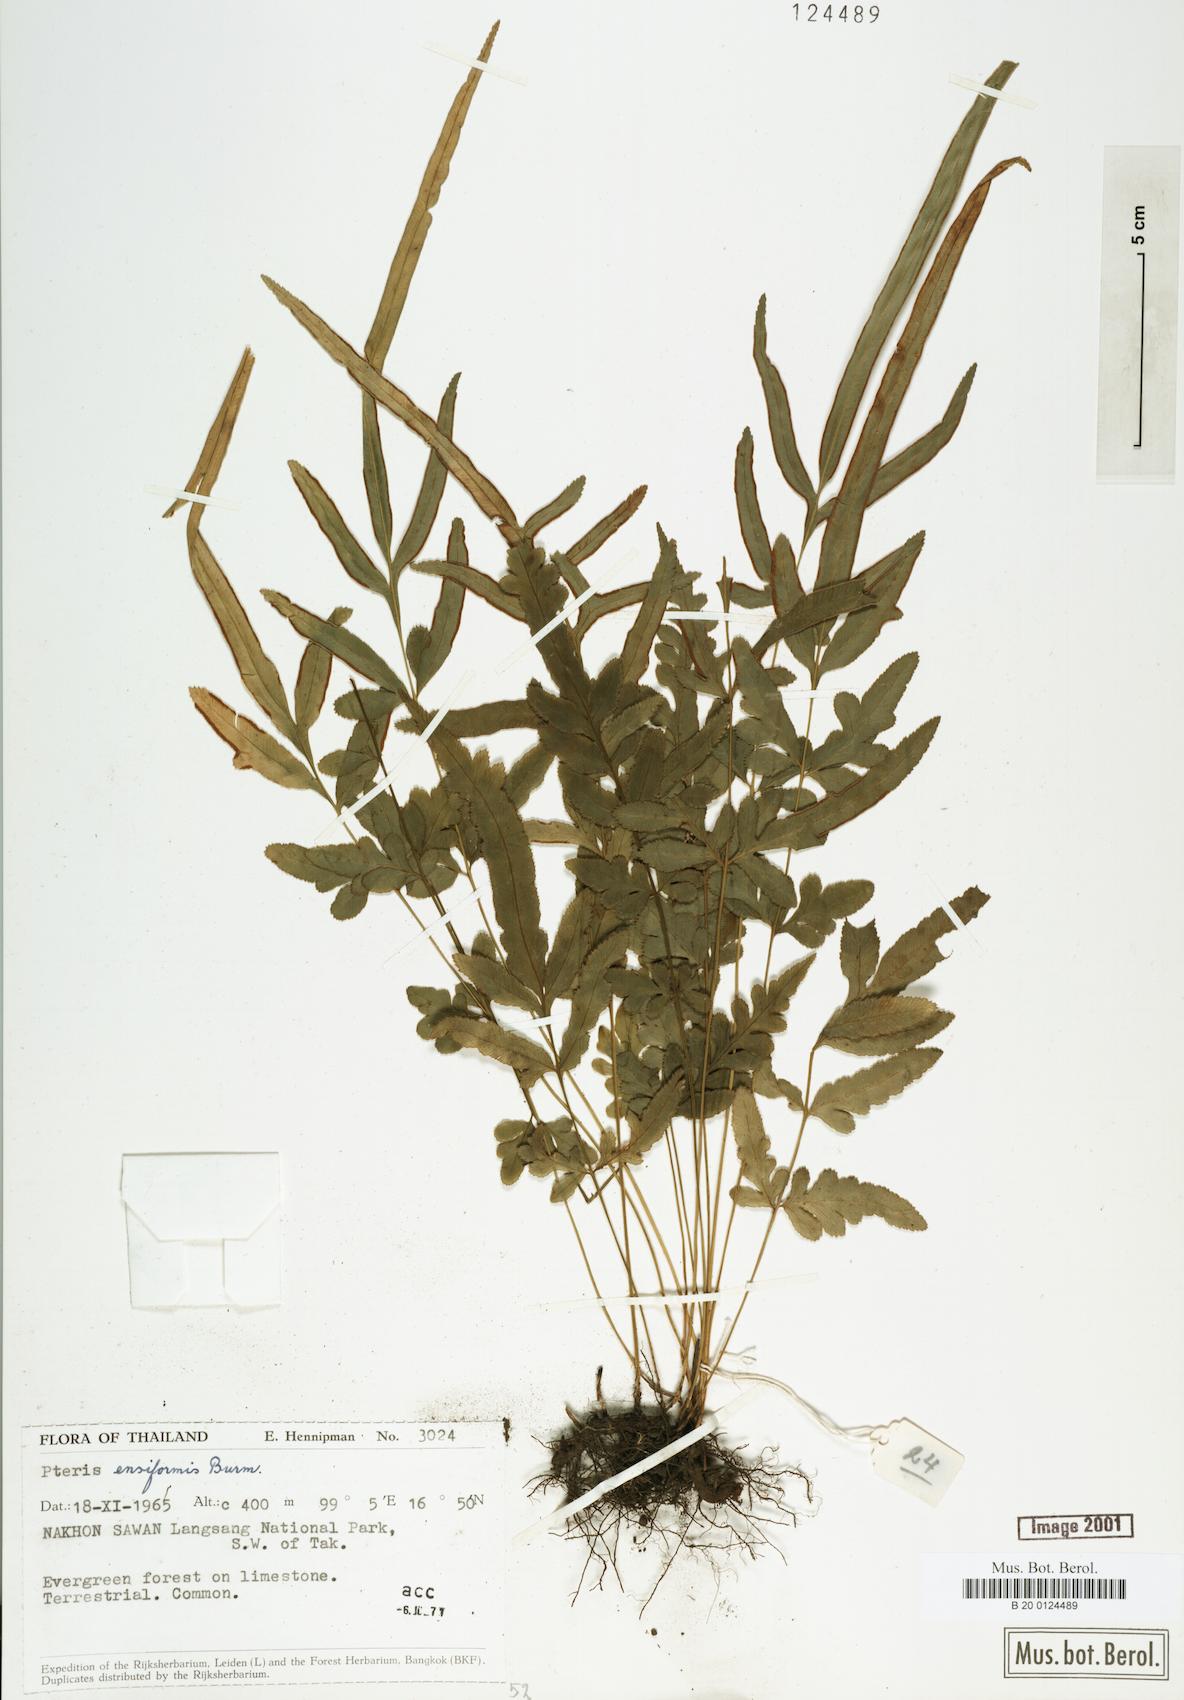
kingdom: Plantae
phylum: Tracheophyta
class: Polypodiopsida
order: Polypodiales
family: Pteridaceae
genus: Pteris
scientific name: Pteris ensiformis
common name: Sword brake
